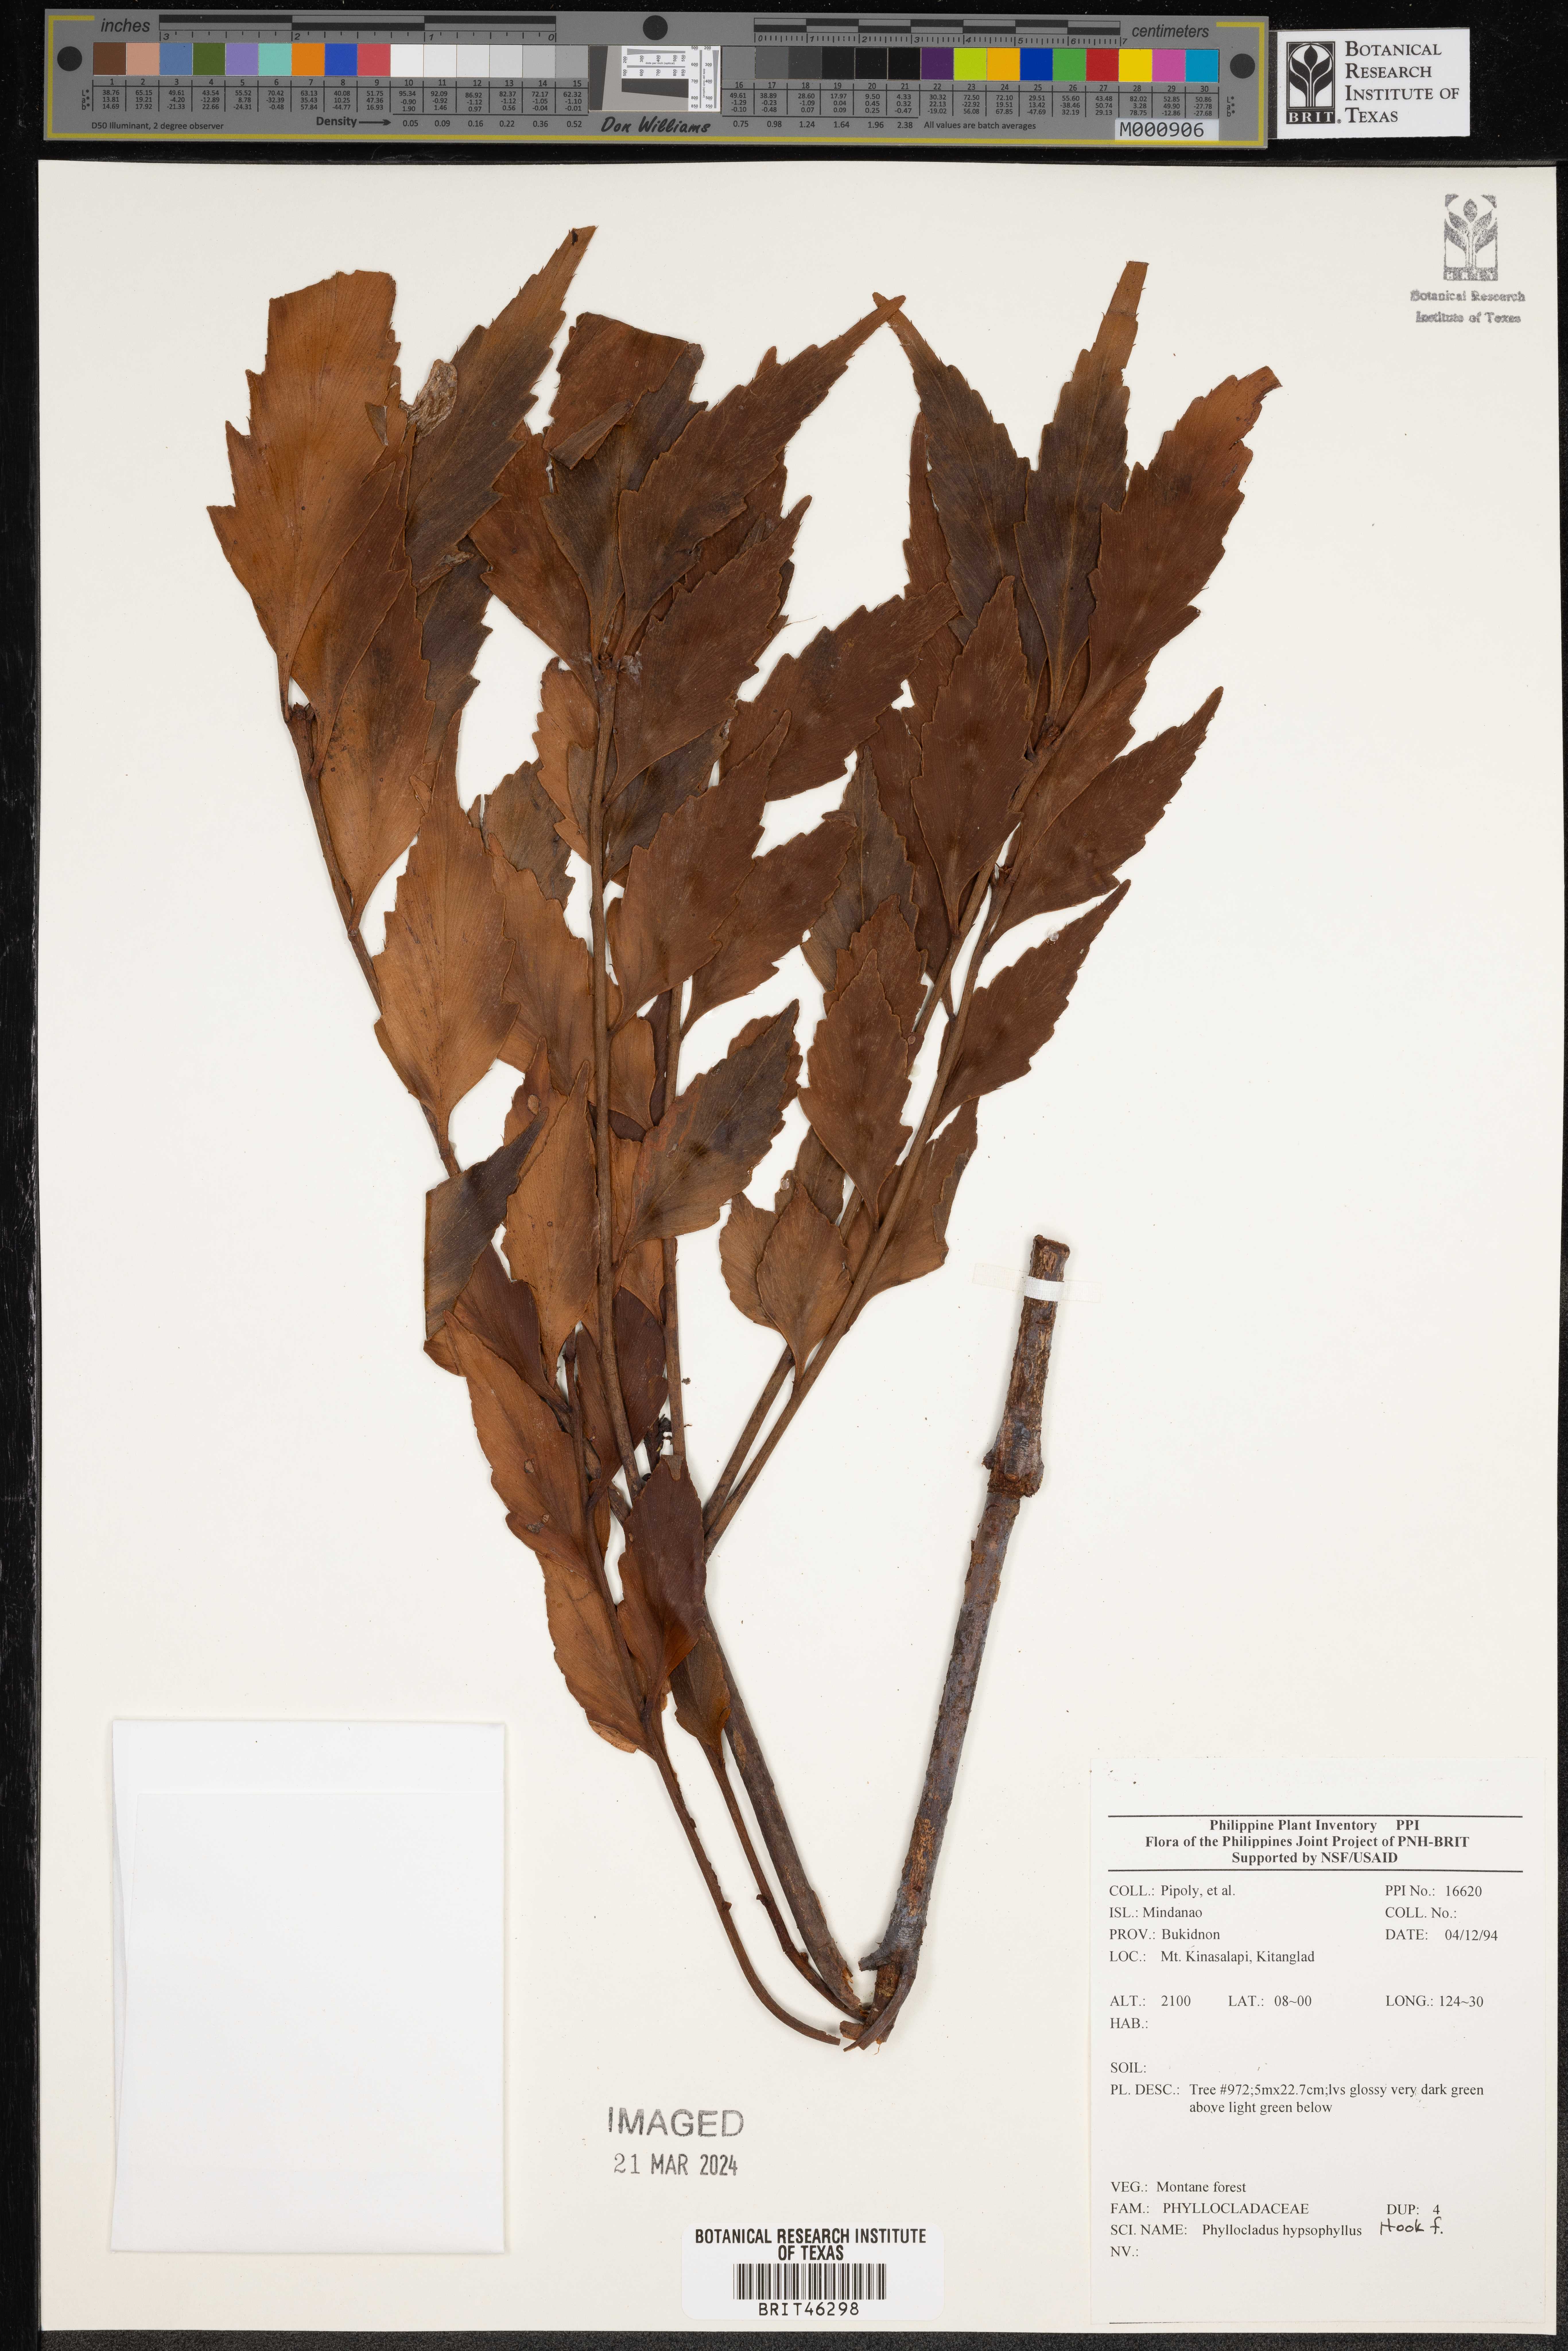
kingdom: Plantae
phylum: Tracheophyta
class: Pinopsida
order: Pinales
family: Phyllocladaceae
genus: Phyllocladus
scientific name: Phyllocladus hypophyllus
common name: Celery pine
